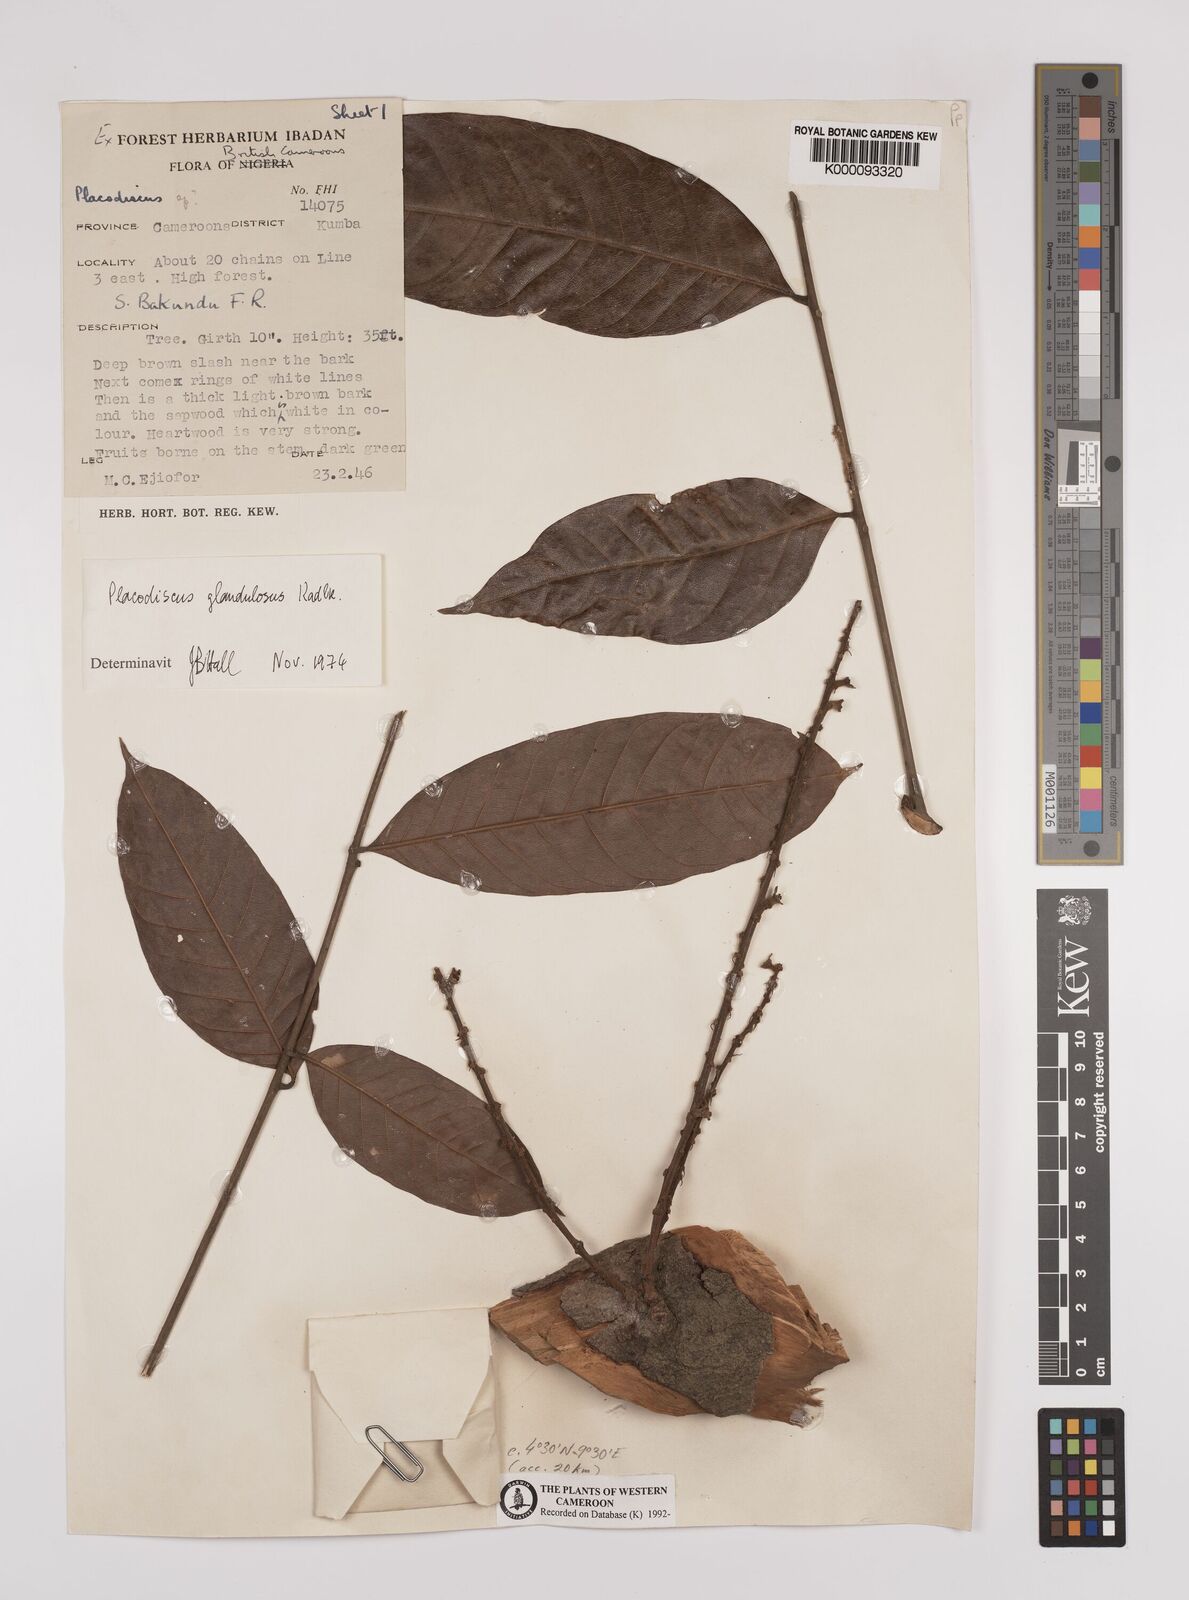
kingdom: Plantae
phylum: Tracheophyta
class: Magnoliopsida
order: Sapindales
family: Sapindaceae
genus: Placodiscus
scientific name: Placodiscus glandulosus
